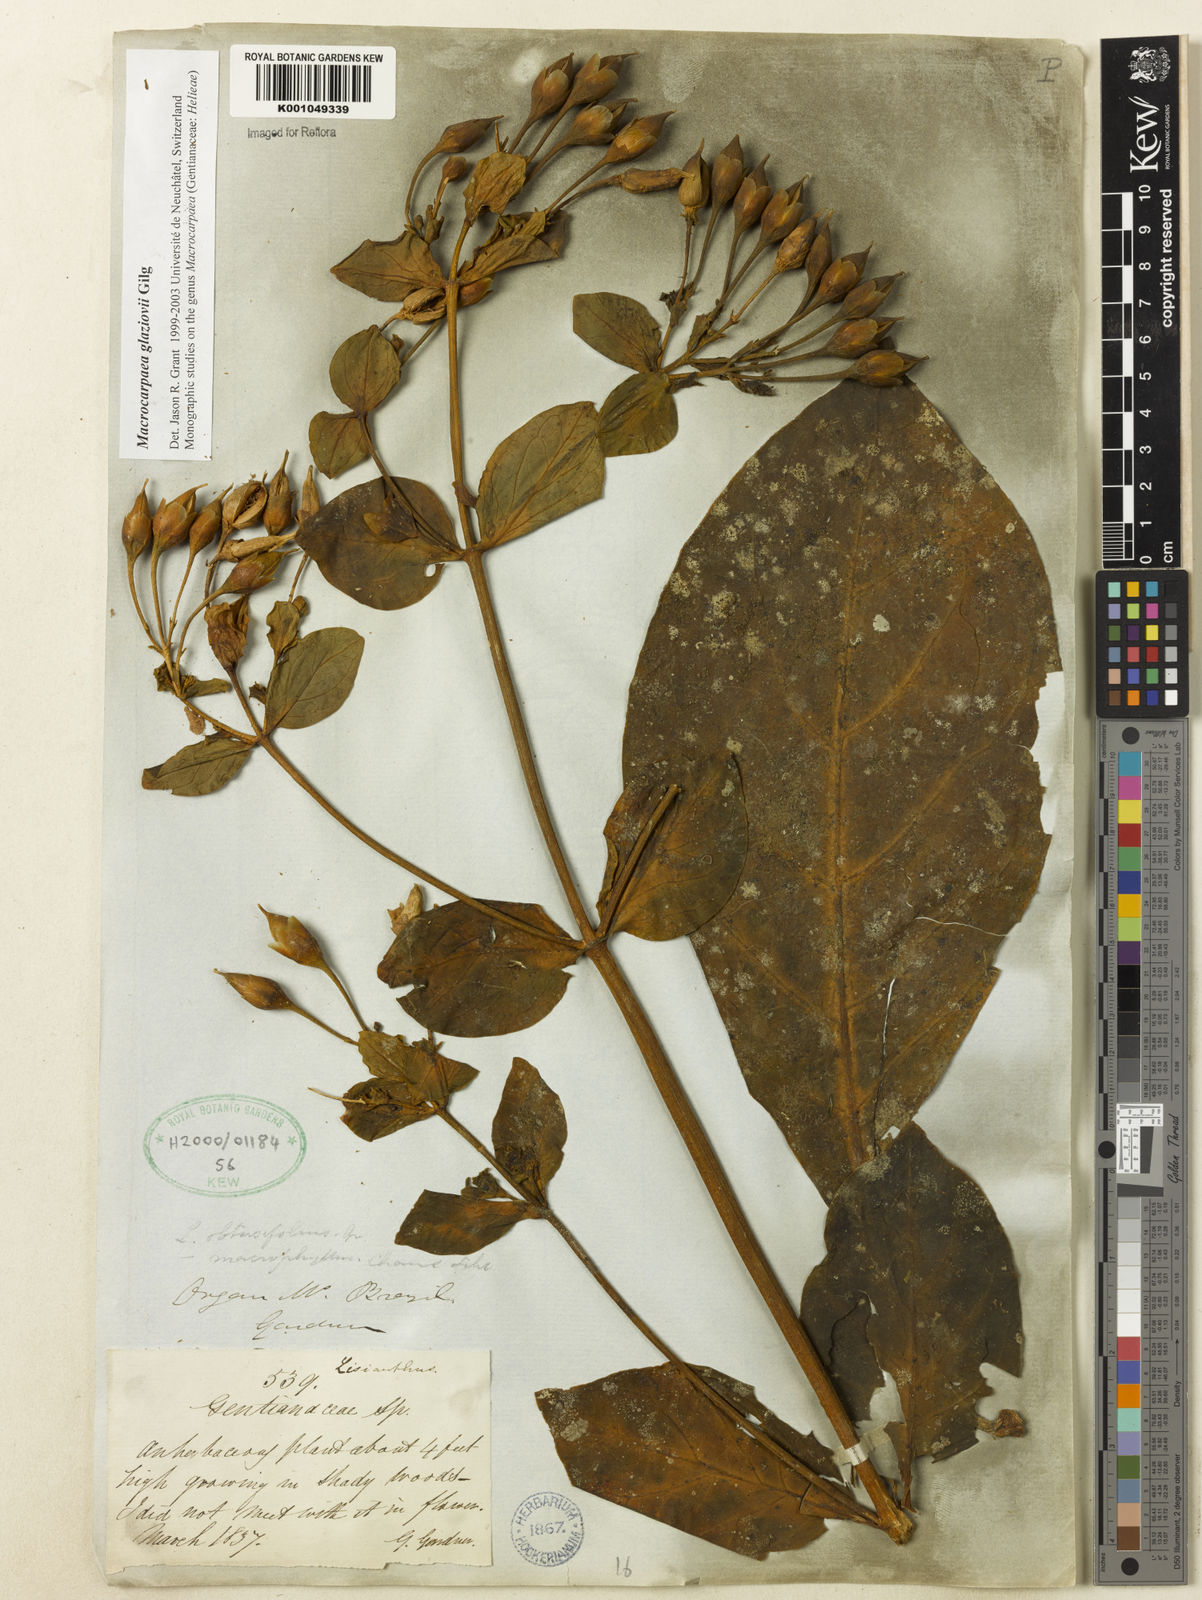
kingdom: Plantae
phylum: Tracheophyta
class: Magnoliopsida
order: Gentianales
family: Gentianaceae
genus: Macrocarpaea
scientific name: Macrocarpaea glaziovii
